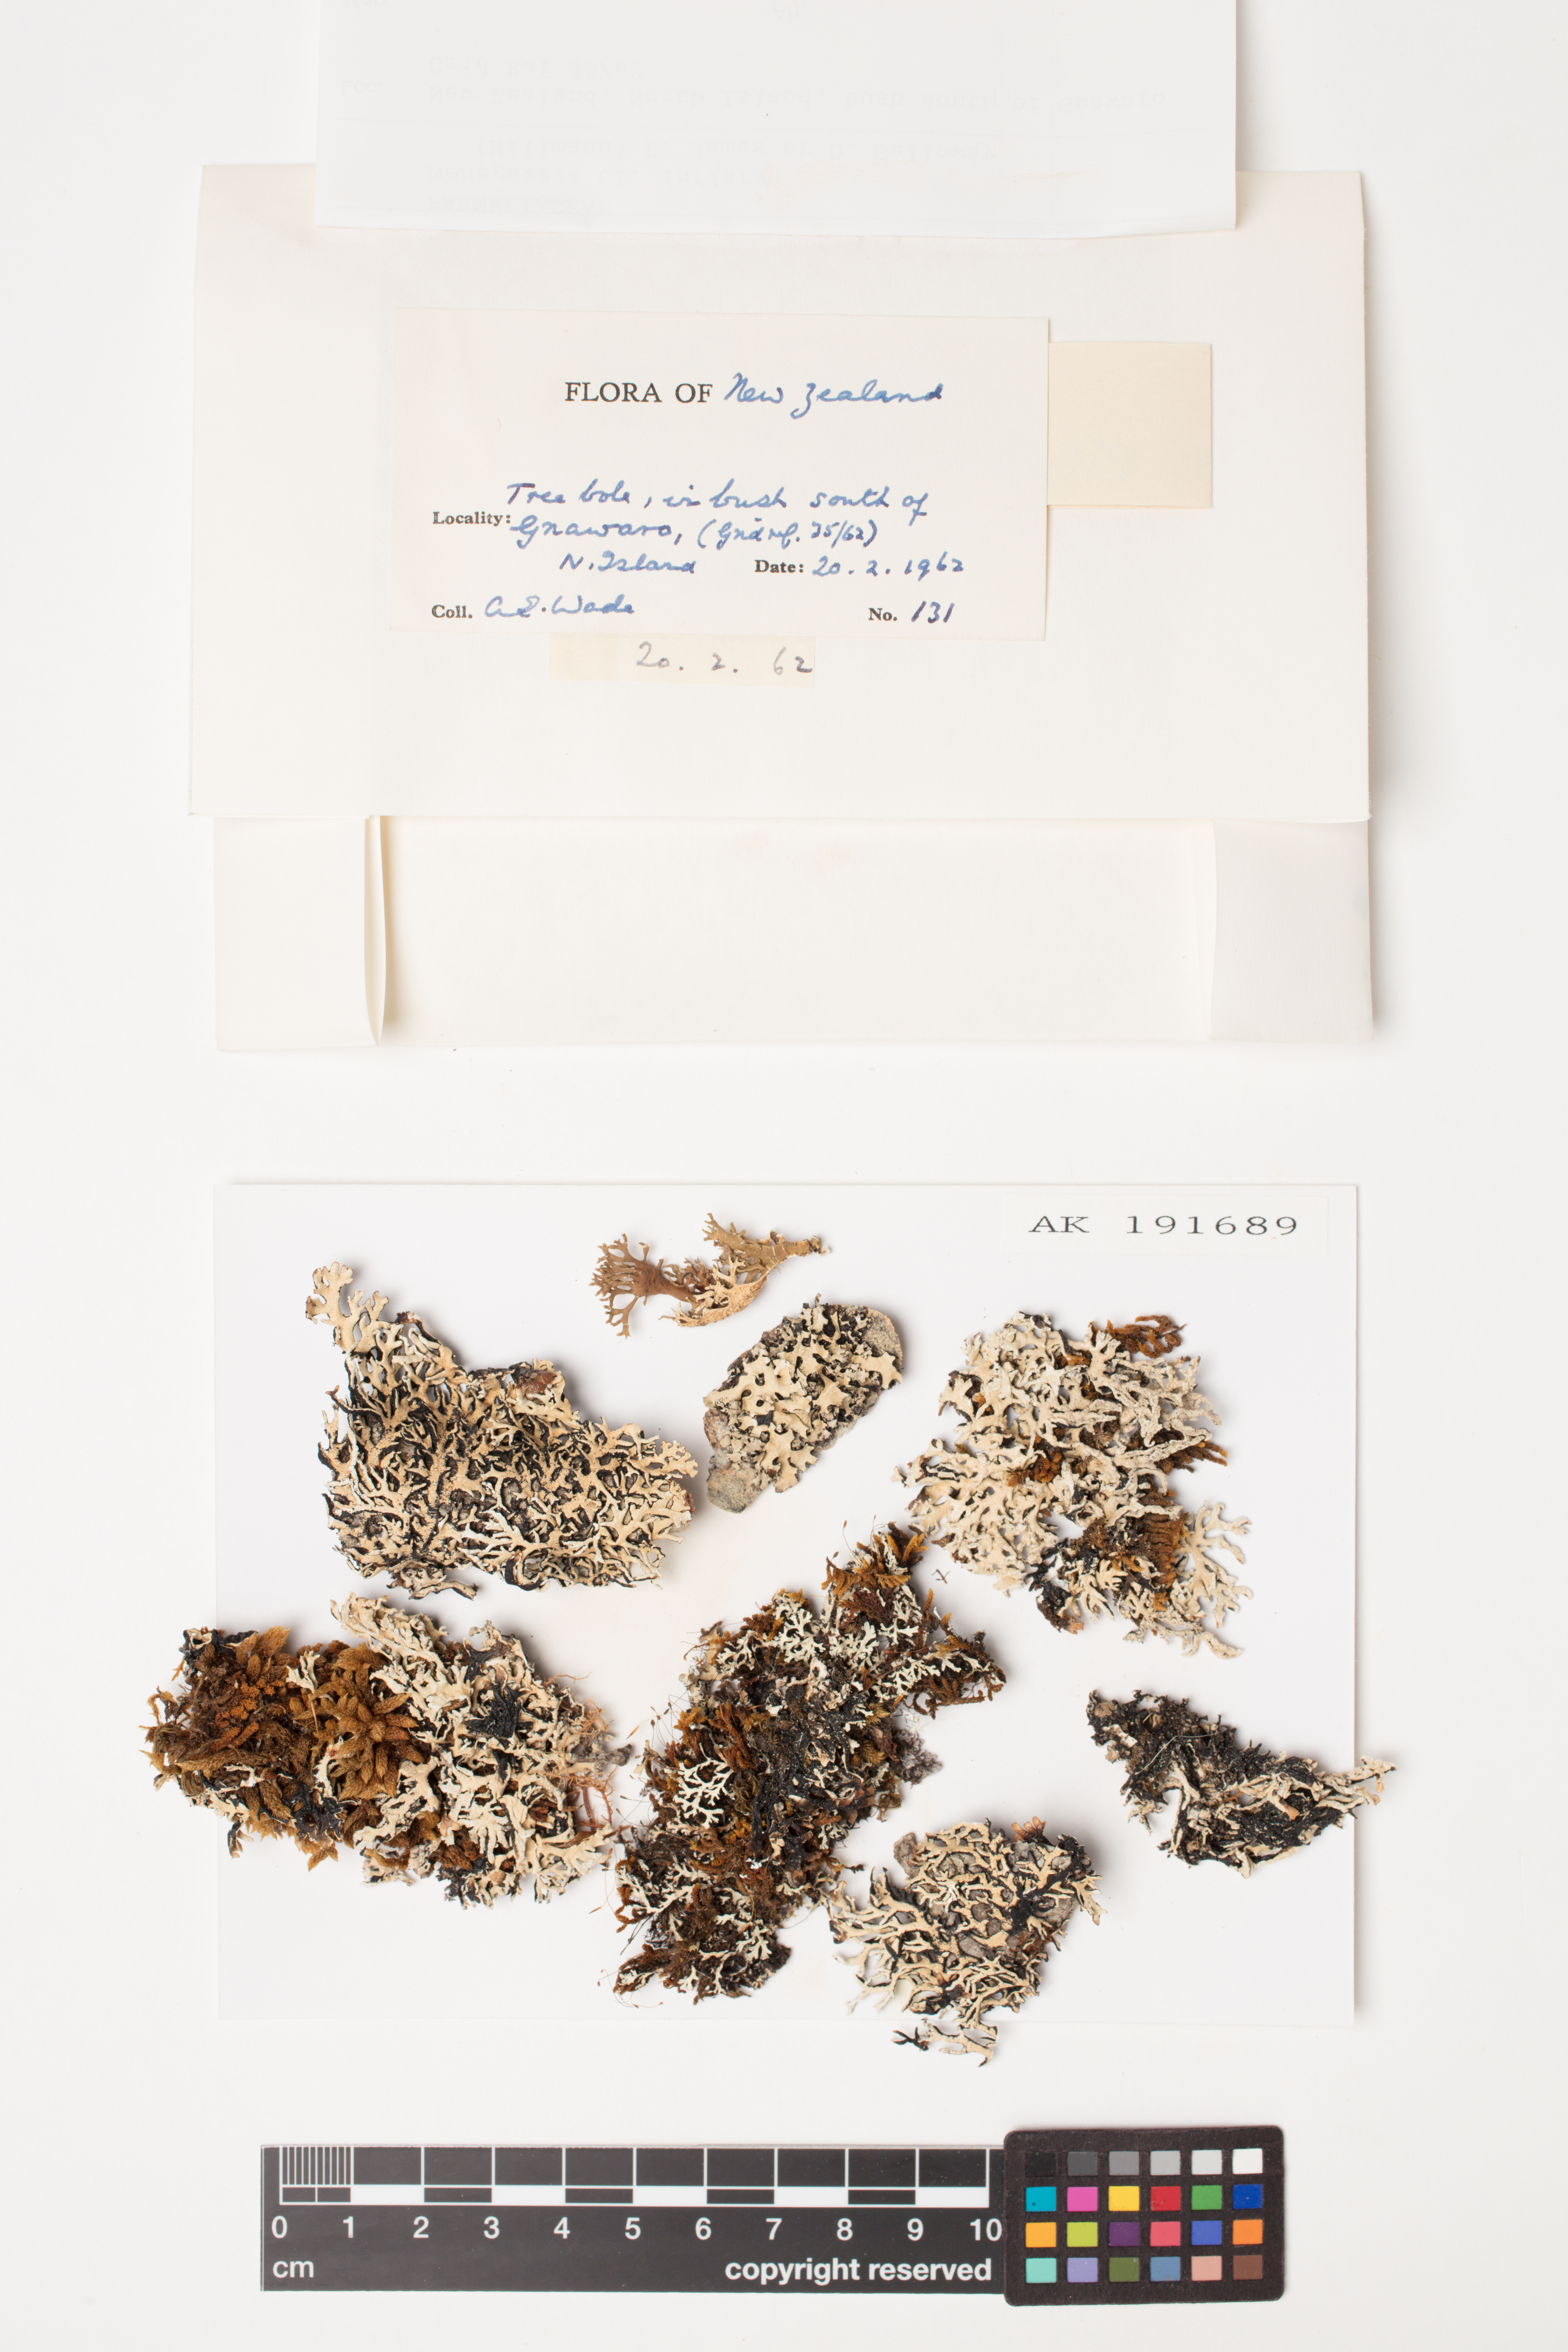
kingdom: Fungi
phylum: Ascomycota
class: Lecanoromycetes
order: Lecanorales
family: Parmeliaceae
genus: Menegazzia
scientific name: Menegazzia
